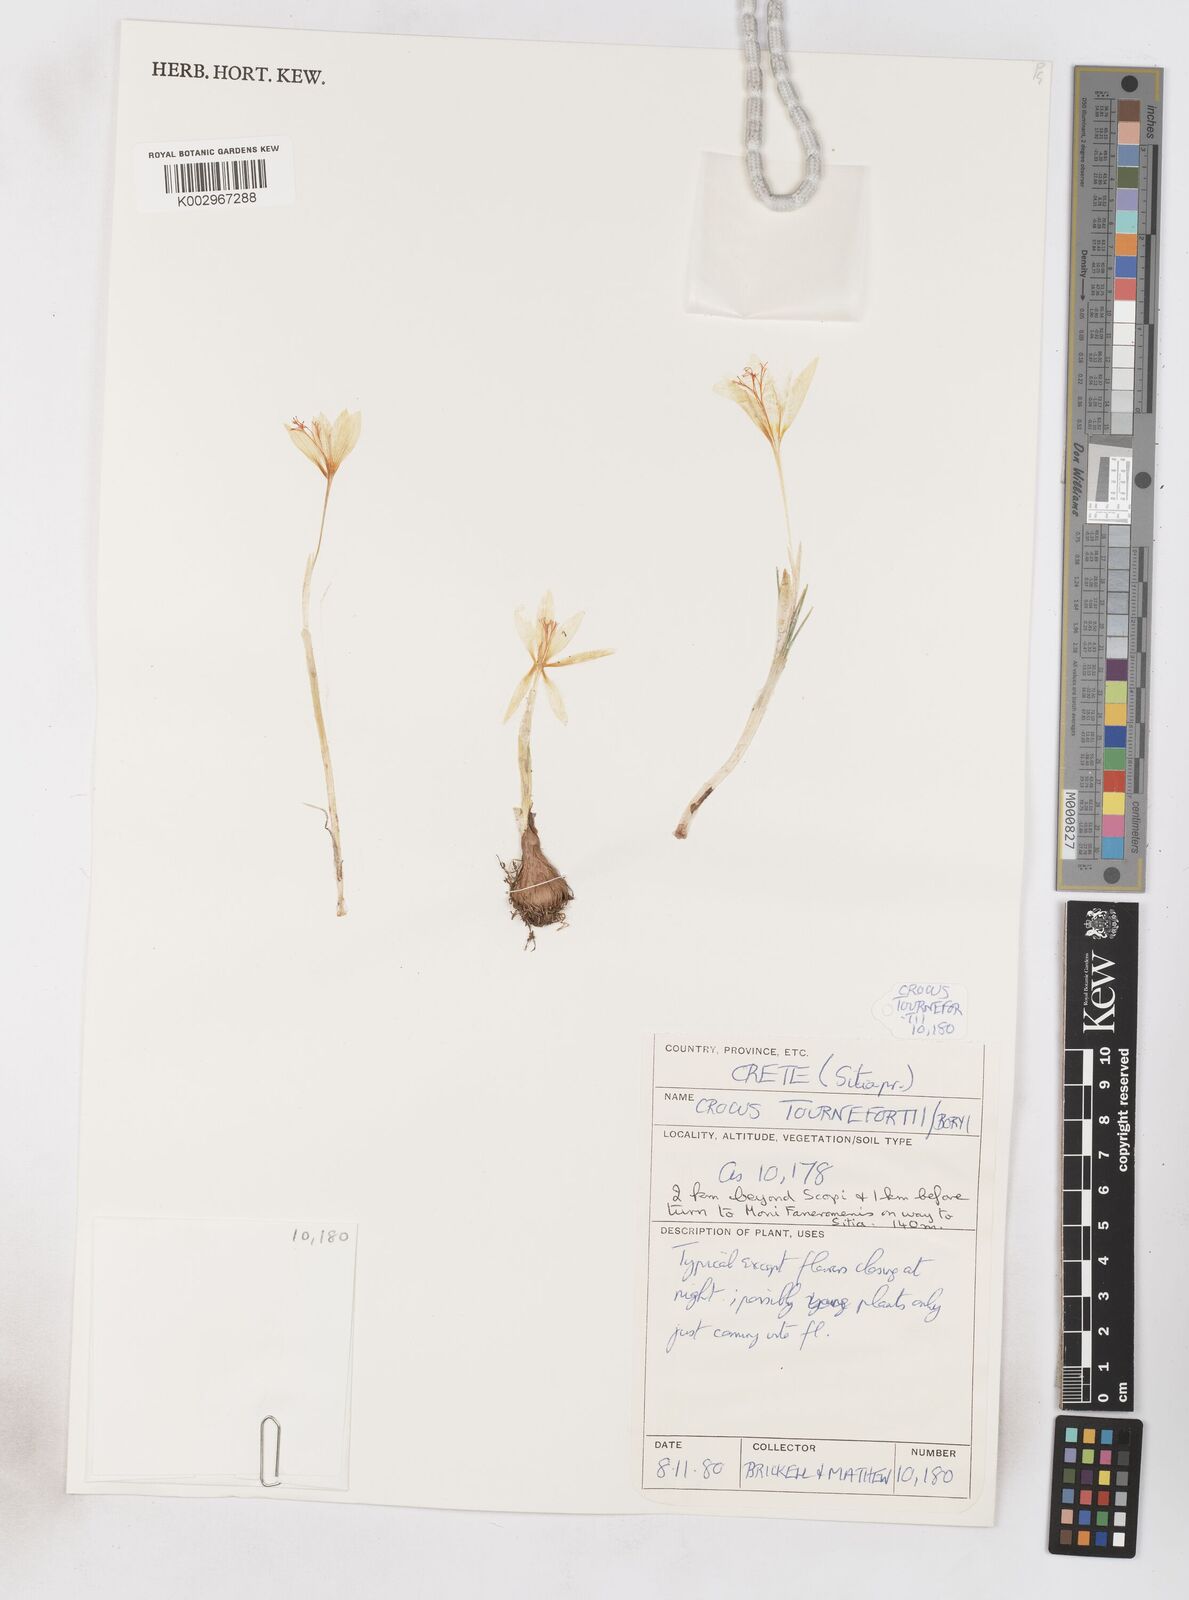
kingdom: Plantae
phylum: Tracheophyta
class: Liliopsida
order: Asparagales
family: Iridaceae
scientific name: Iridaceae
